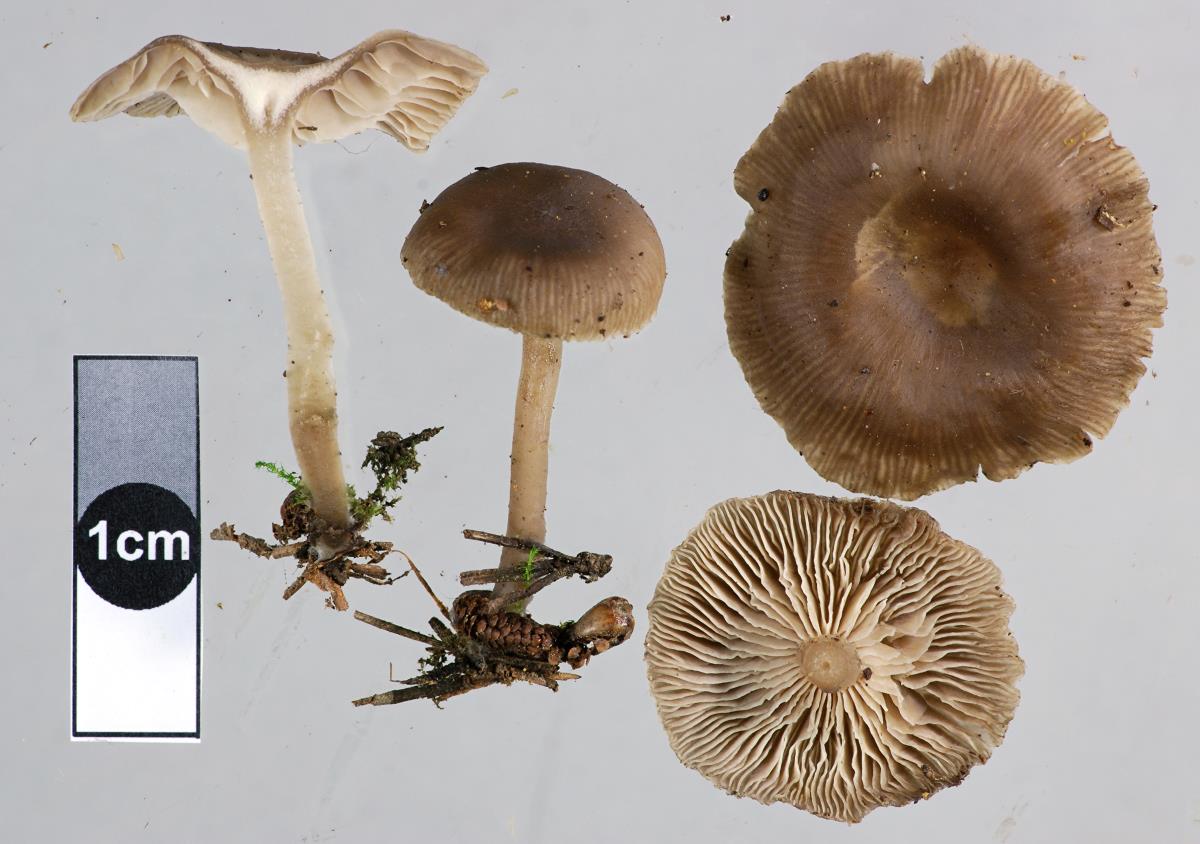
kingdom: Fungi
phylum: Basidiomycota
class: Agaricomycetes
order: Agaricales
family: Tricholomataceae
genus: Clitocybe
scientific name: Clitocybe brunneoceracea
